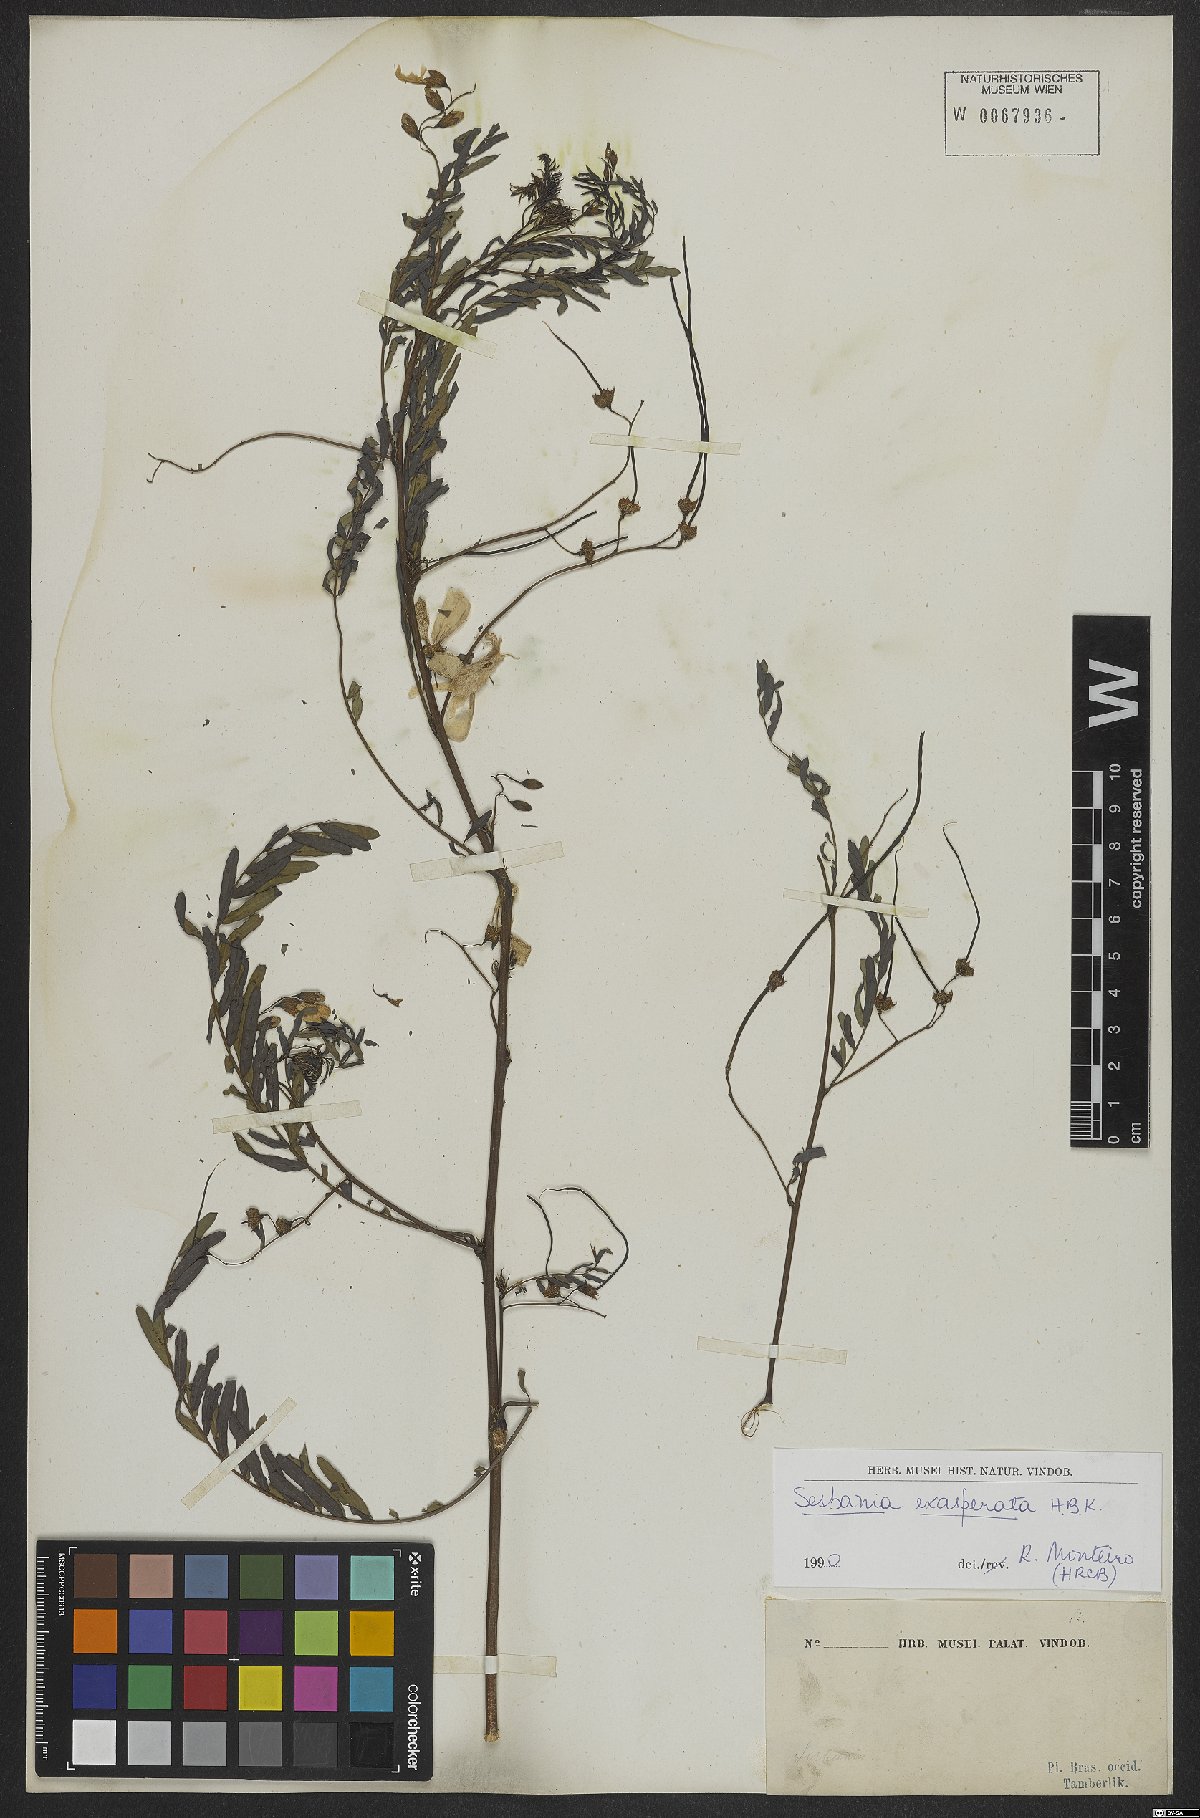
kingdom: Plantae
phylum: Tracheophyta
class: Magnoliopsida
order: Fabales
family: Fabaceae
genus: Sesbania
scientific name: Sesbania exasperata
